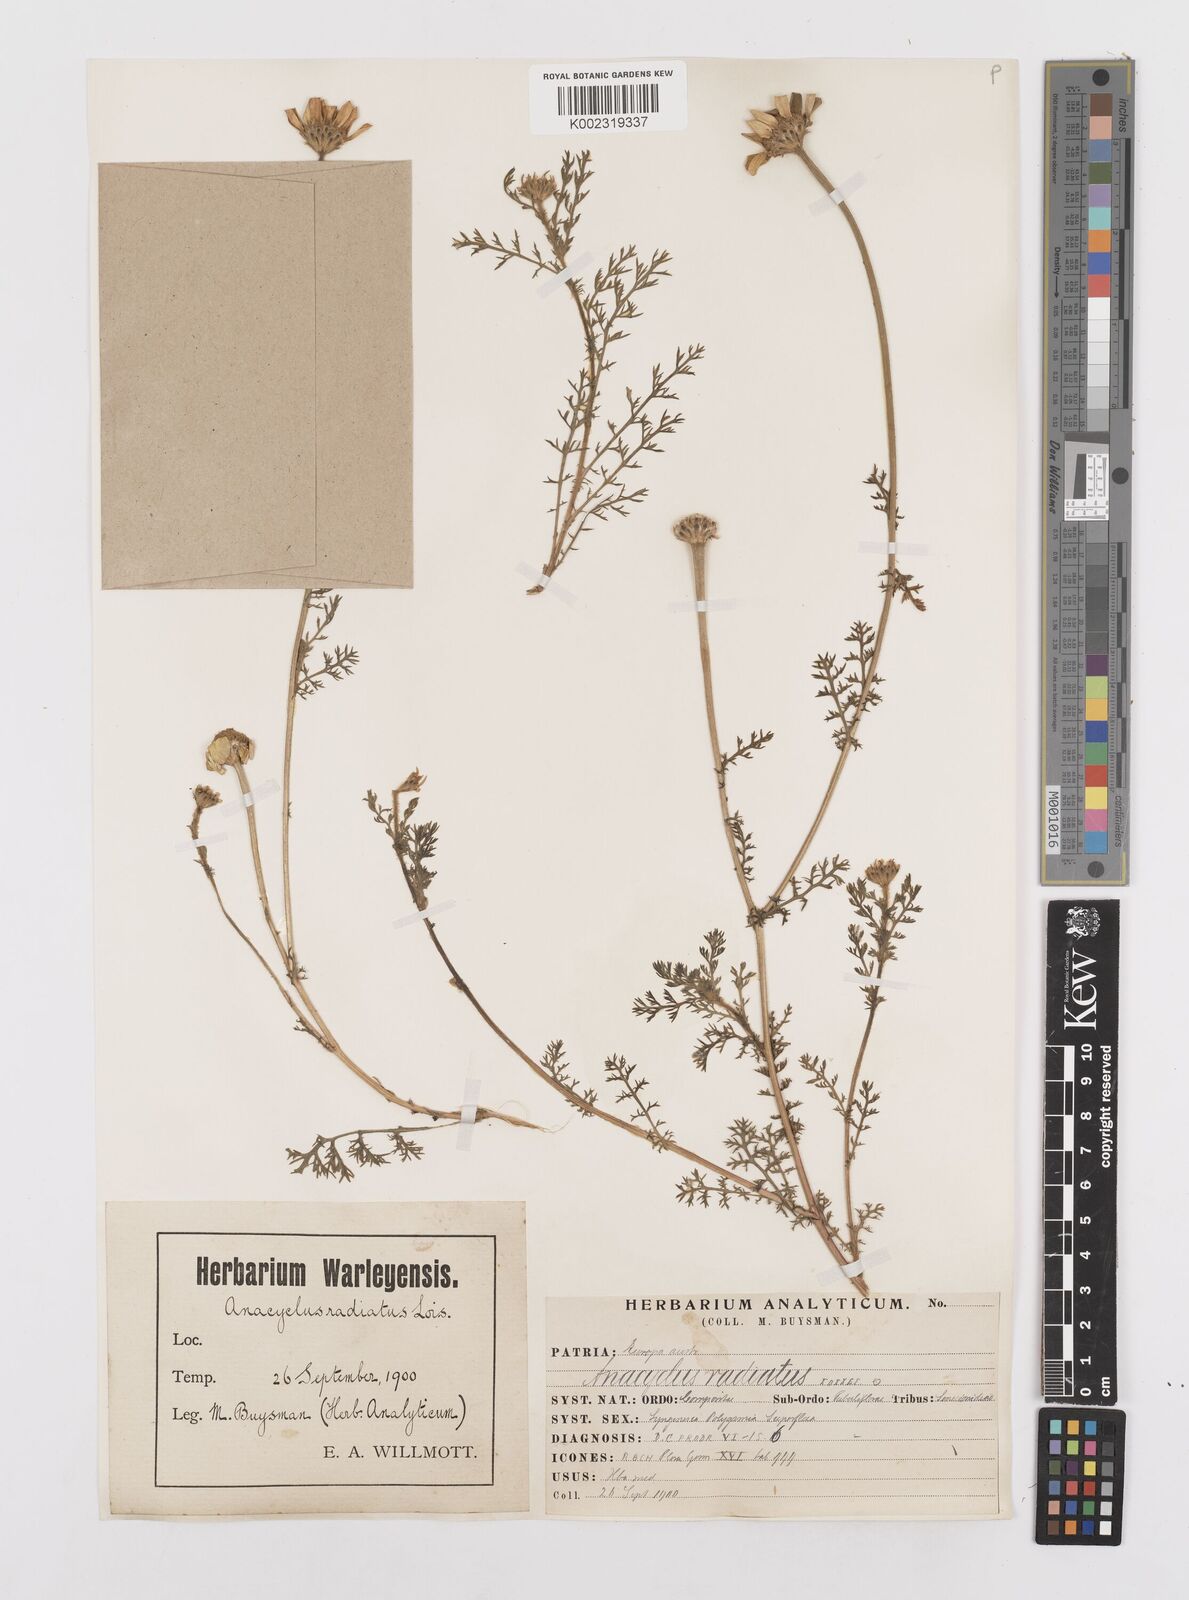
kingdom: Plantae
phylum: Tracheophyta
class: Magnoliopsida
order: Asterales
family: Asteraceae
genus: Anacyclus
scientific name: Anacyclus radiatus
